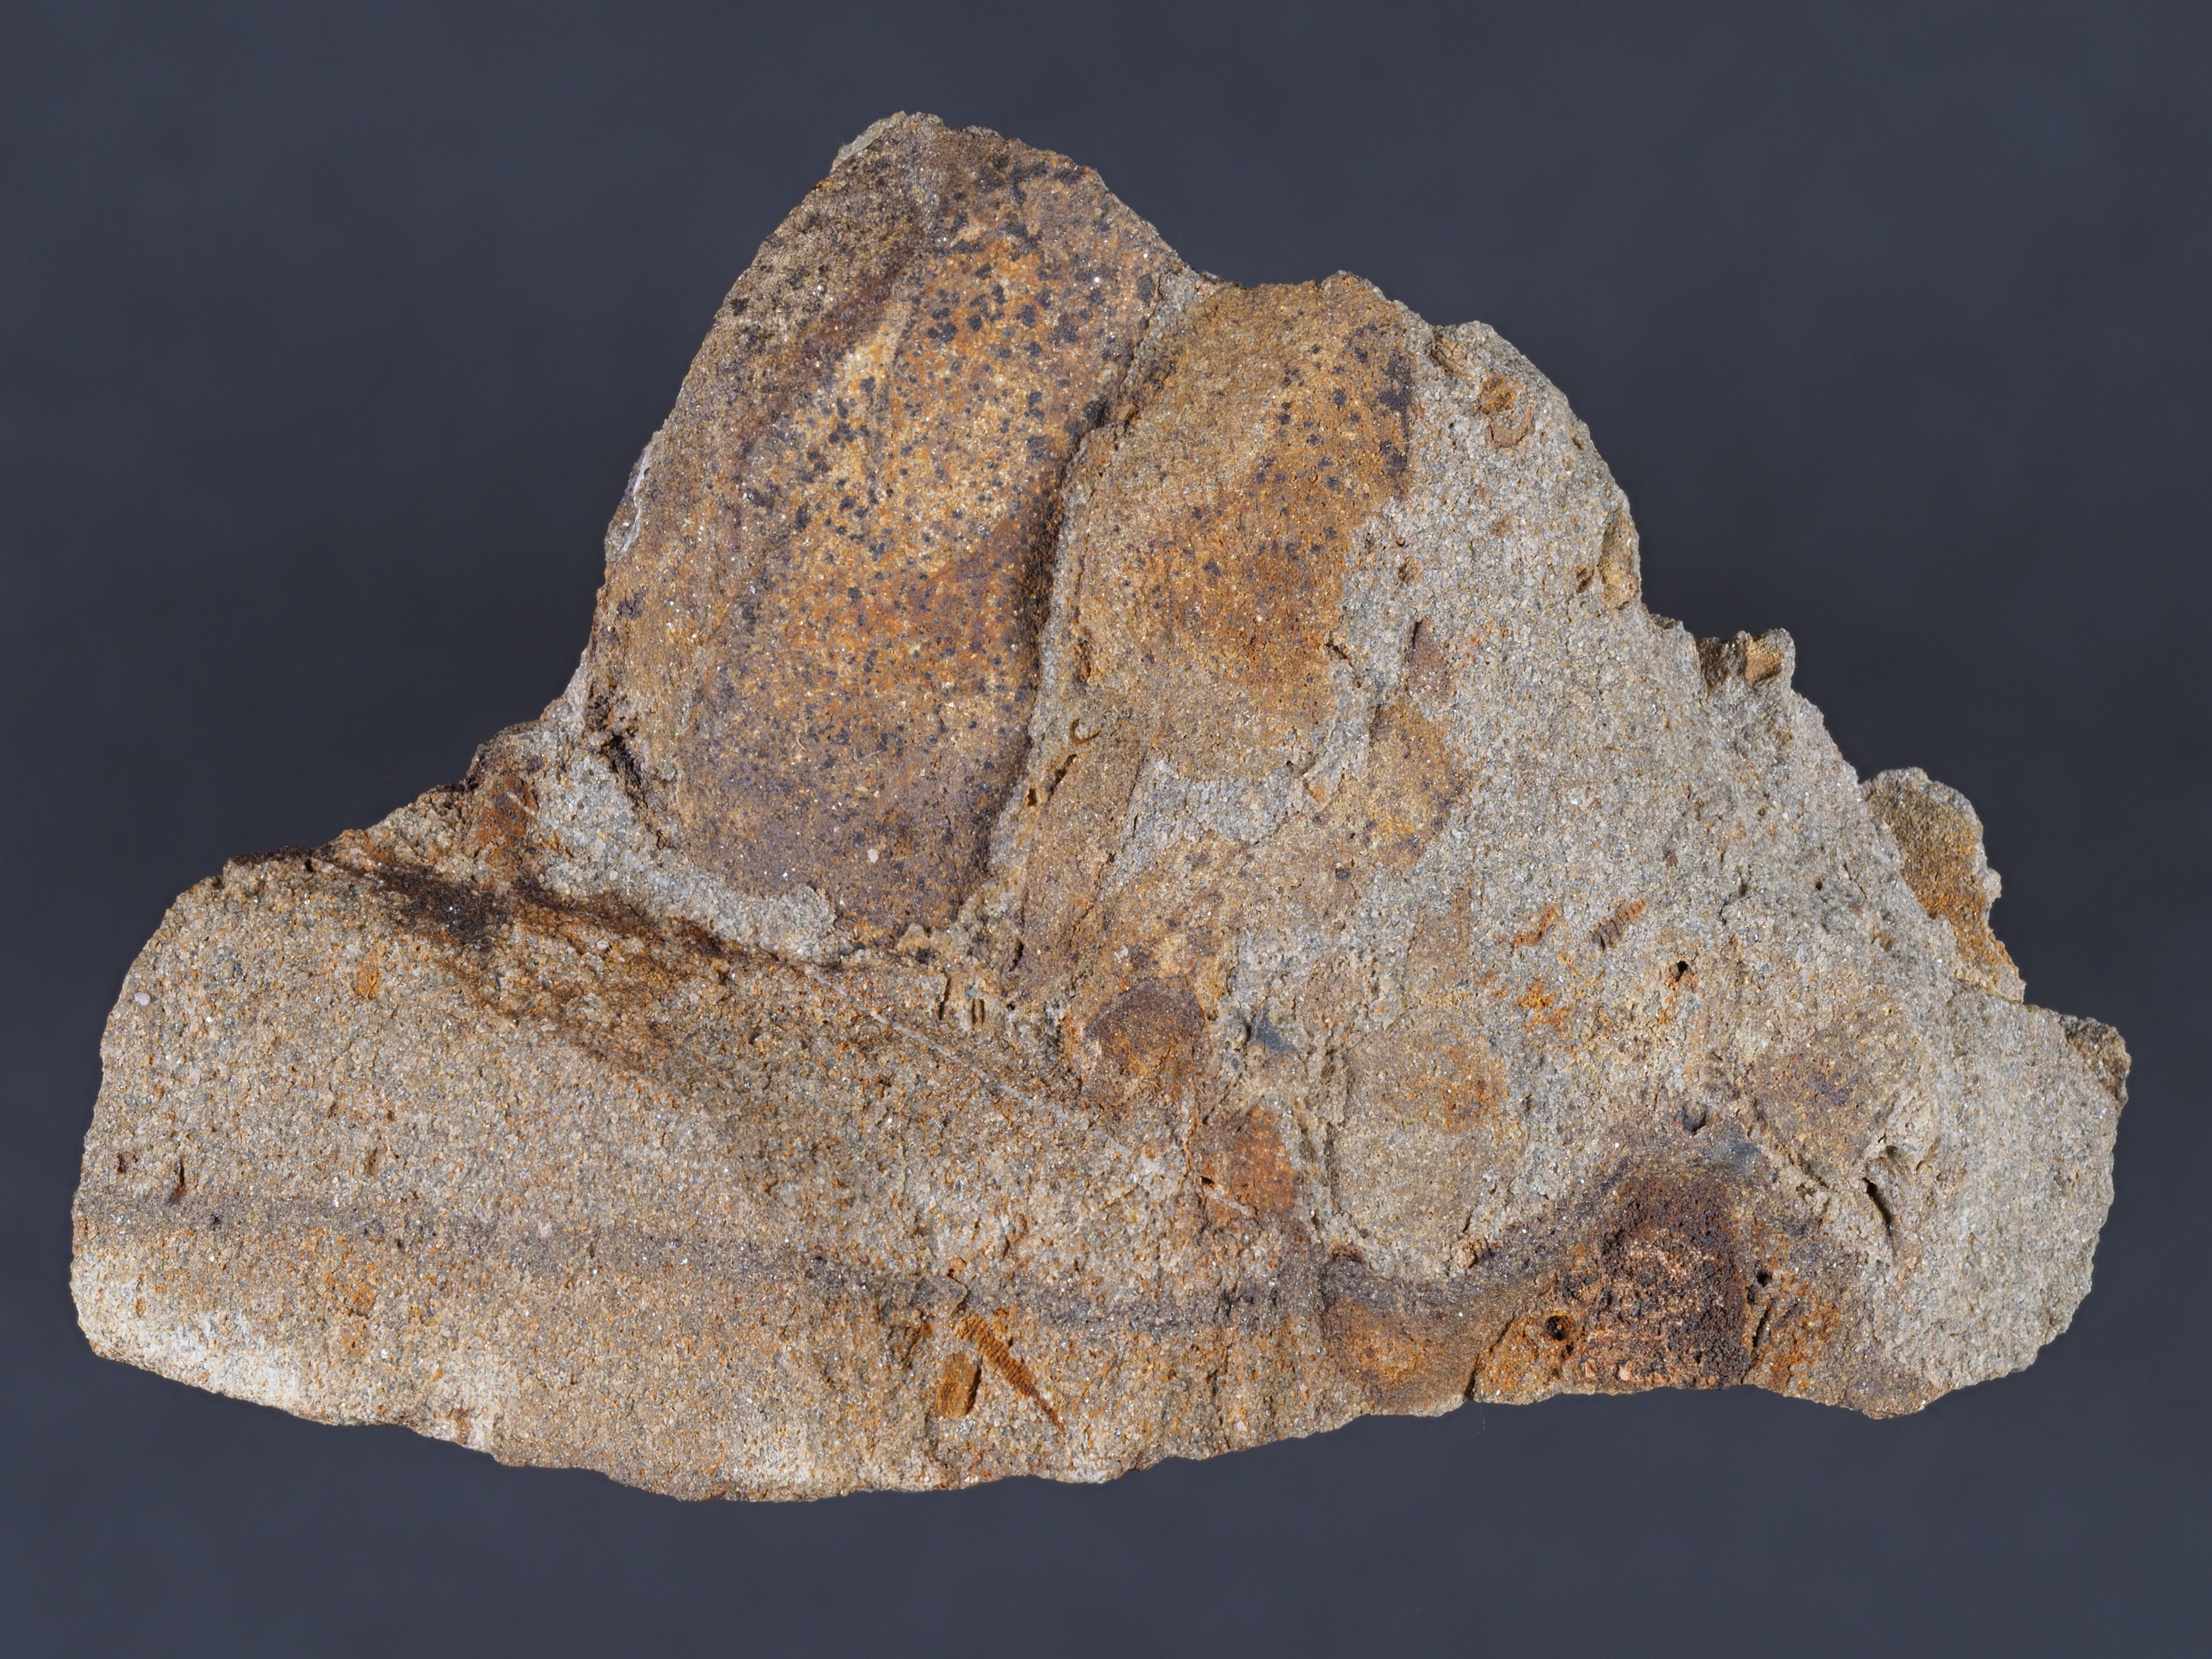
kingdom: Animalia
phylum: Mollusca
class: Bivalvia
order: Carditida
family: Crassatellidae
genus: Cypricardella
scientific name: Cypricardella
